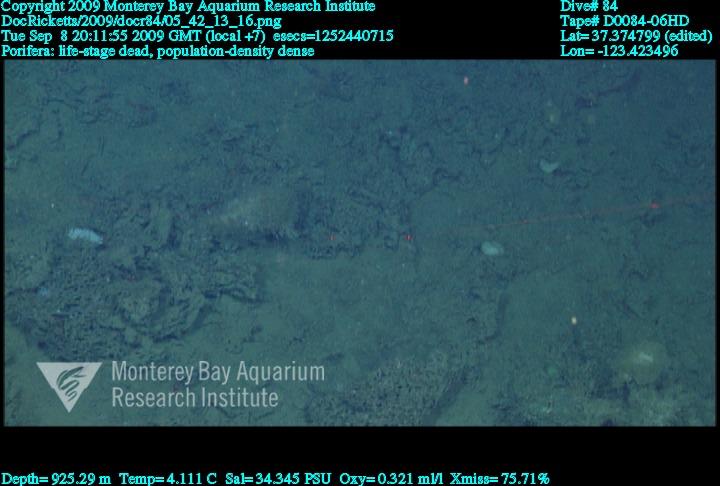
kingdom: Animalia
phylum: Porifera
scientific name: Porifera
